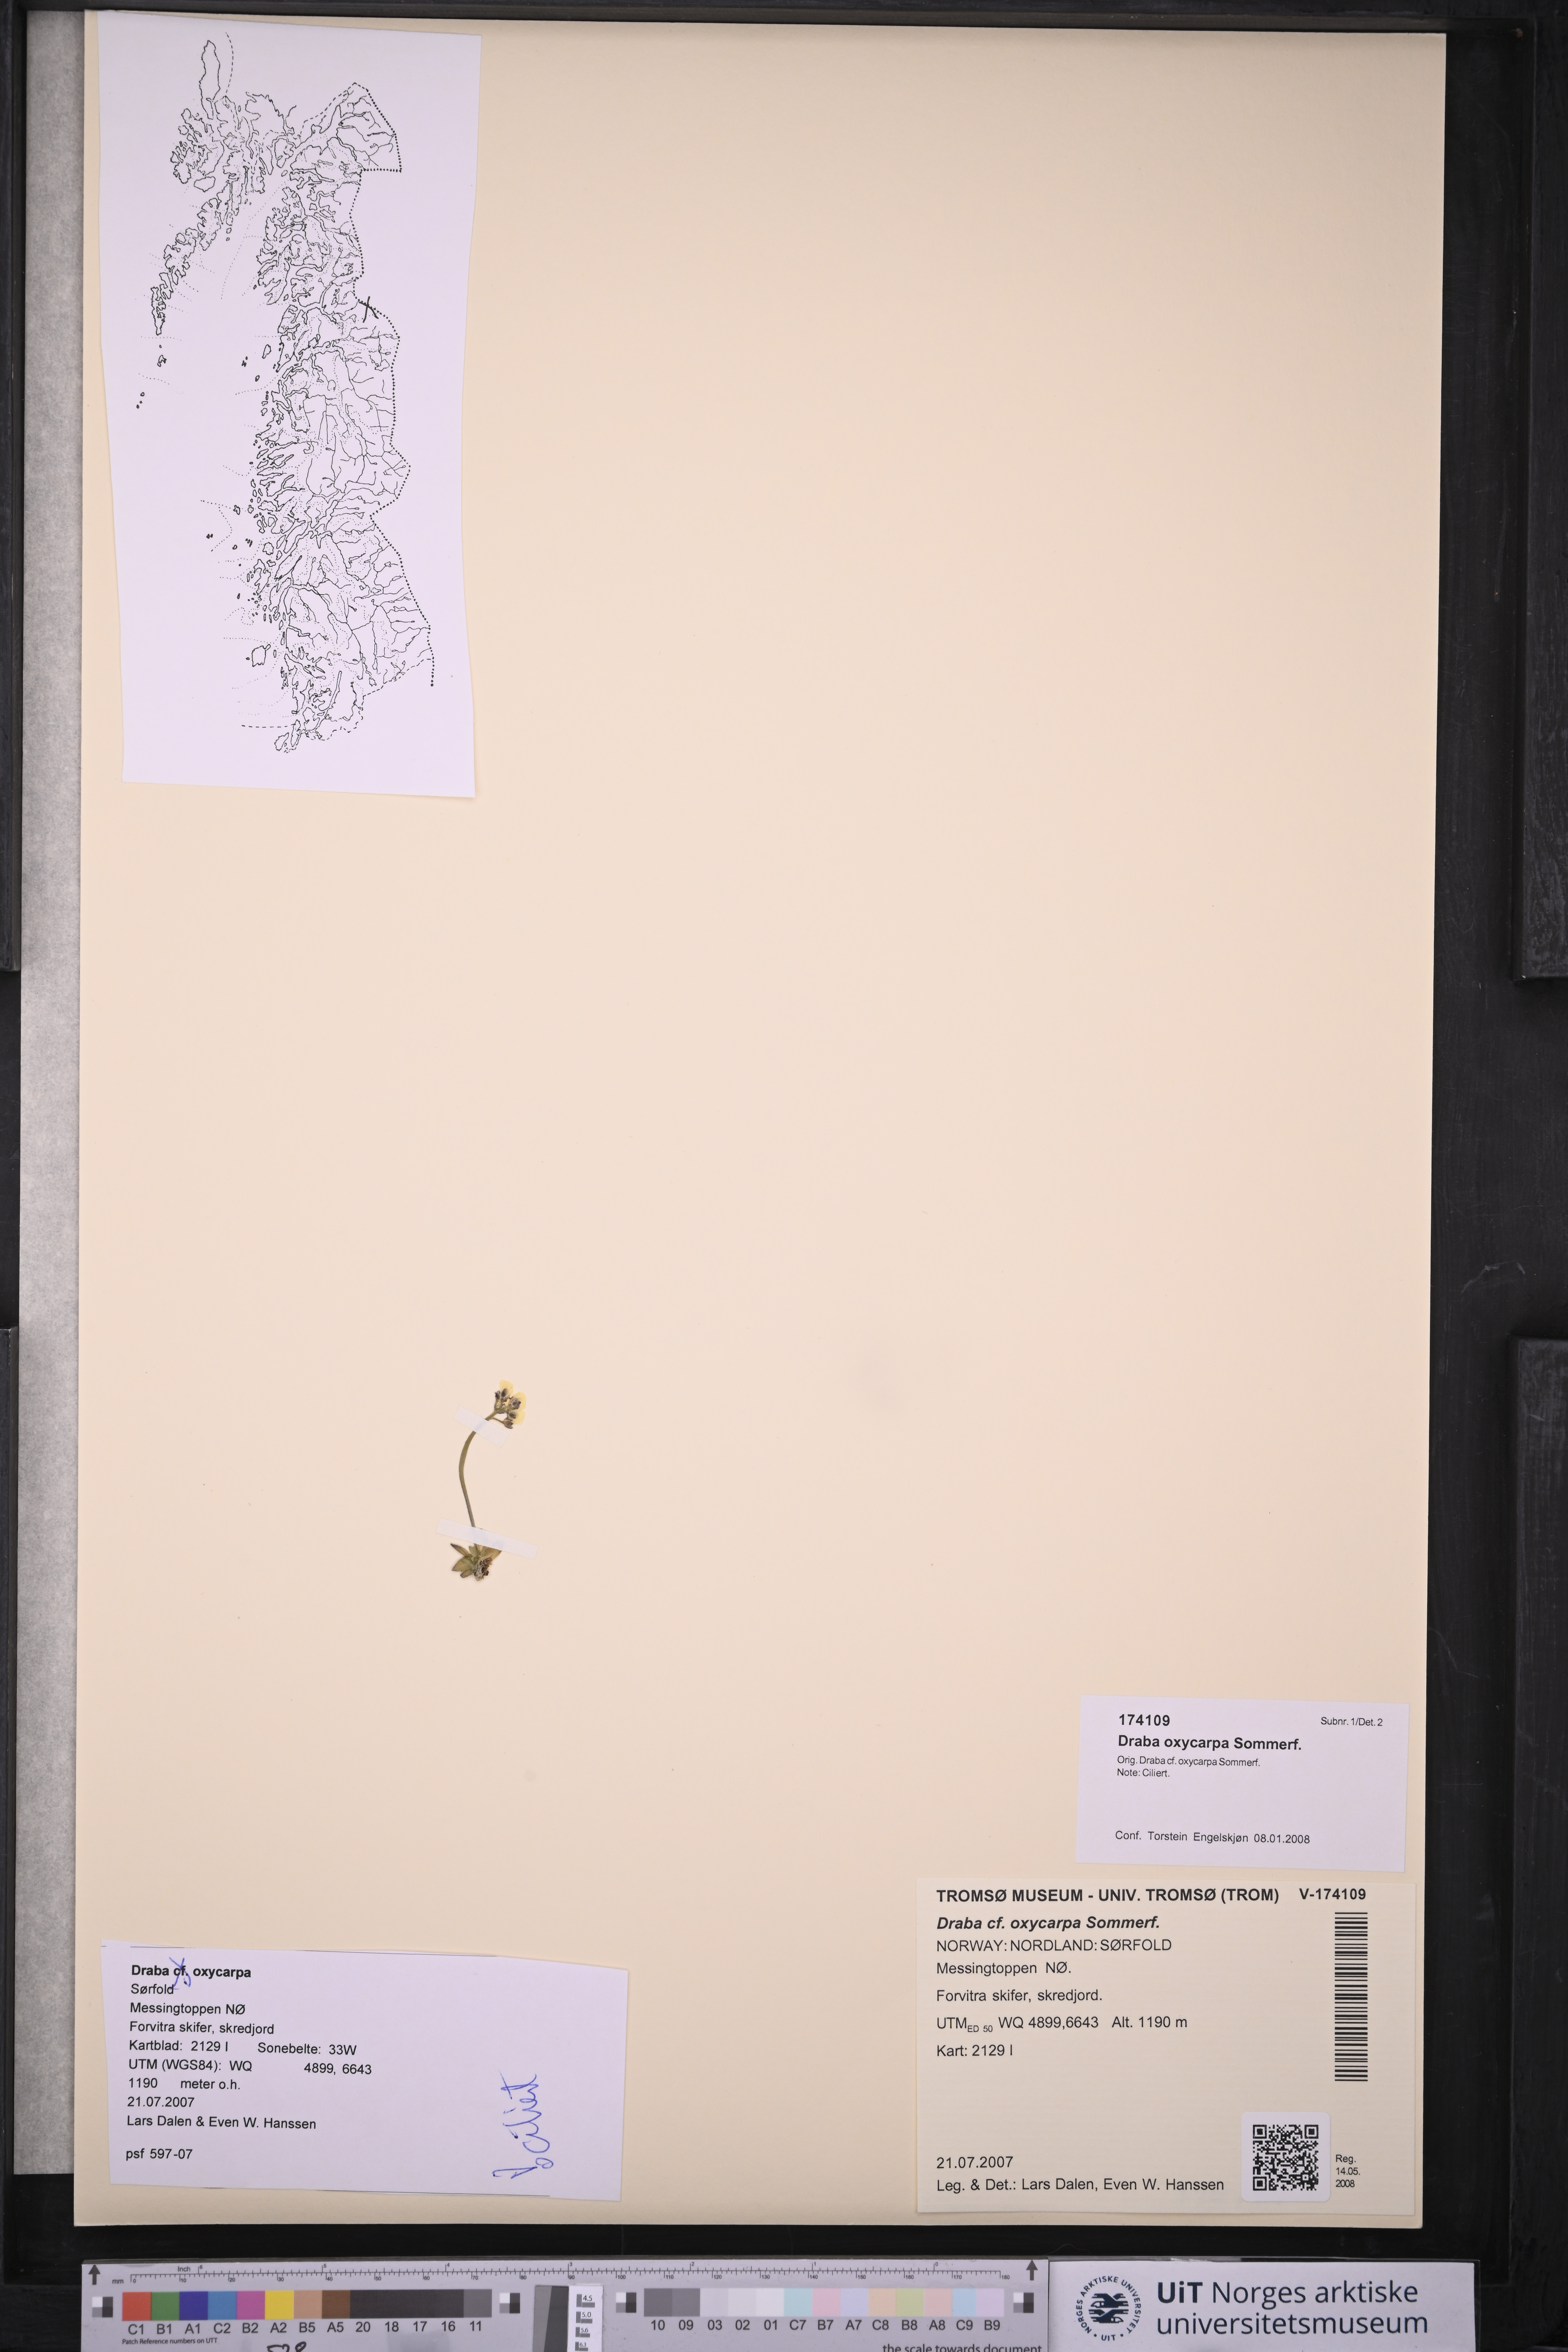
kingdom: Plantae
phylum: Tracheophyta
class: Magnoliopsida
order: Brassicales
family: Brassicaceae
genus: Draba
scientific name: Draba oxycarpa
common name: Sharp-fruited whitlow-grass
